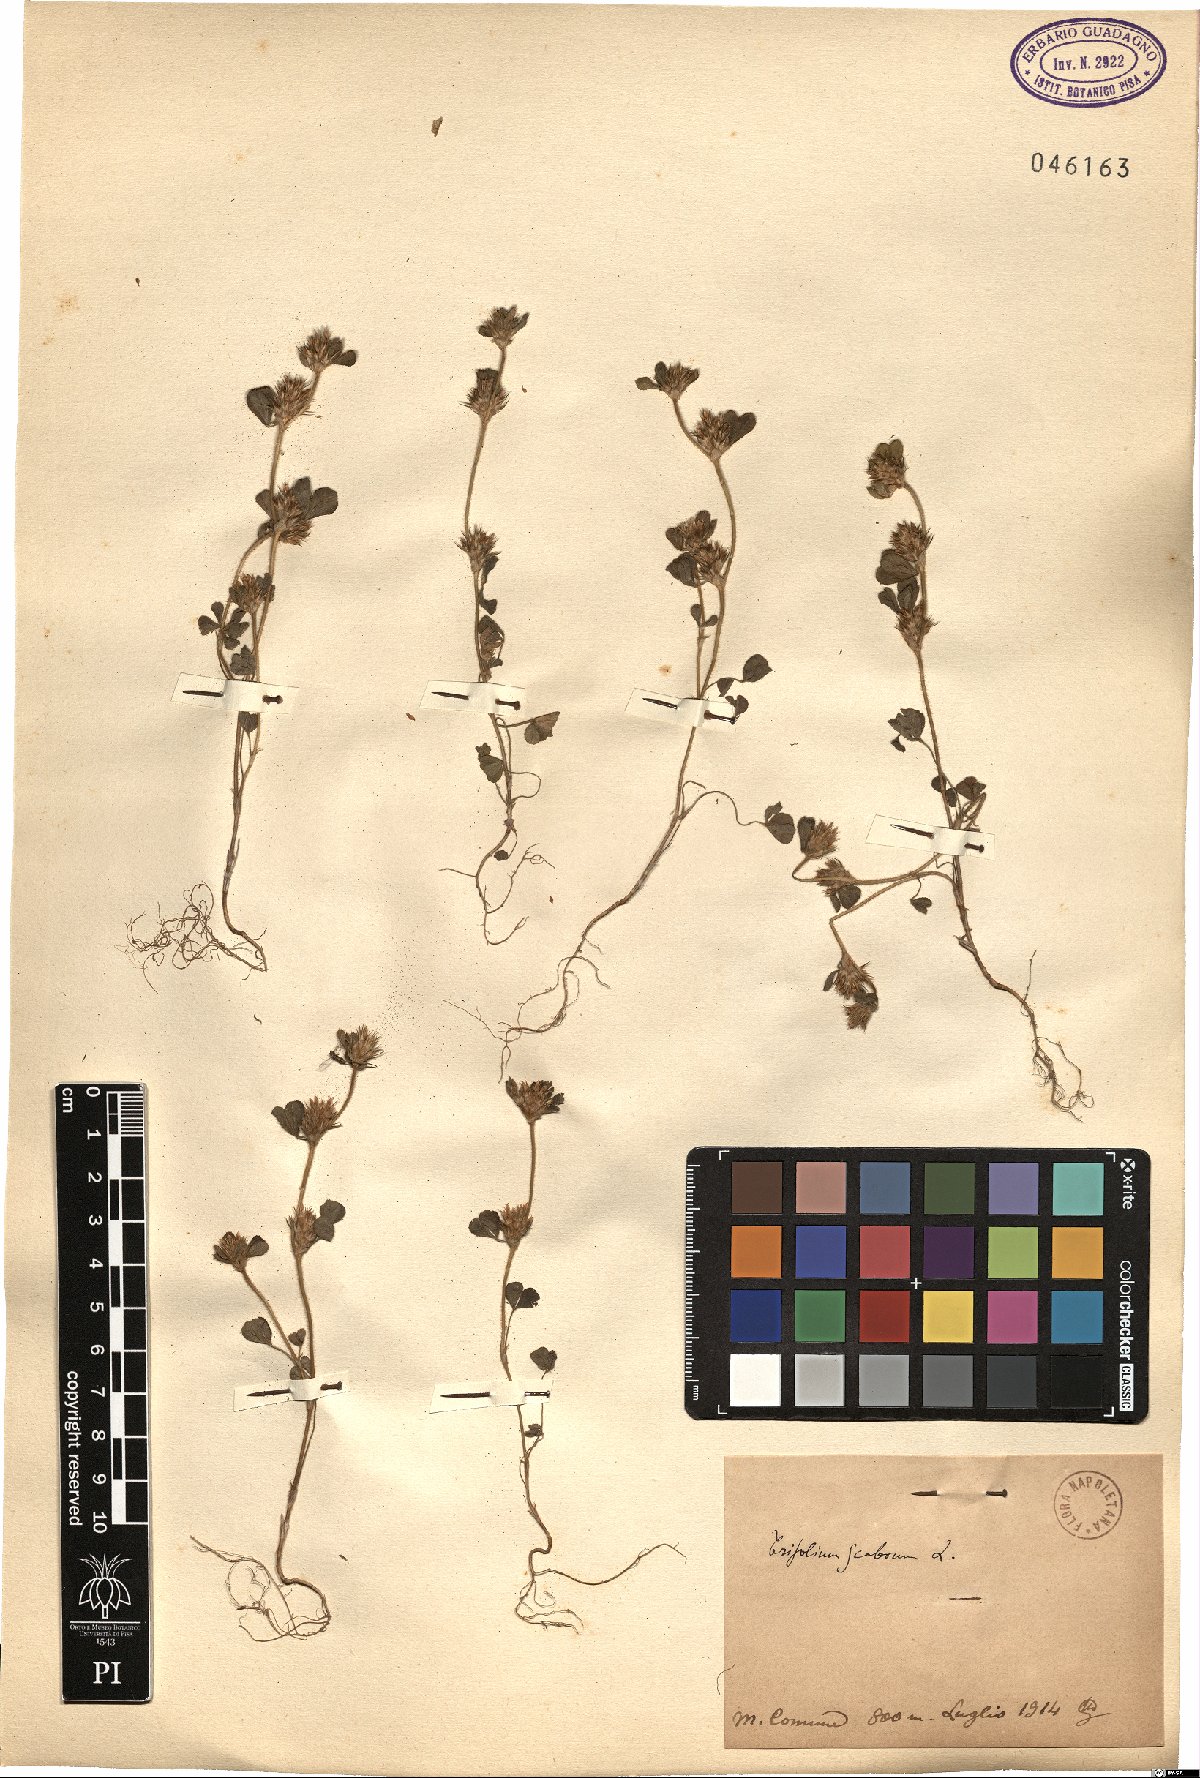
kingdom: Plantae
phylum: Tracheophyta
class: Magnoliopsida
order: Fabales
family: Fabaceae
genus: Trifolium
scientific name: Trifolium scabrum
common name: Rough clover
